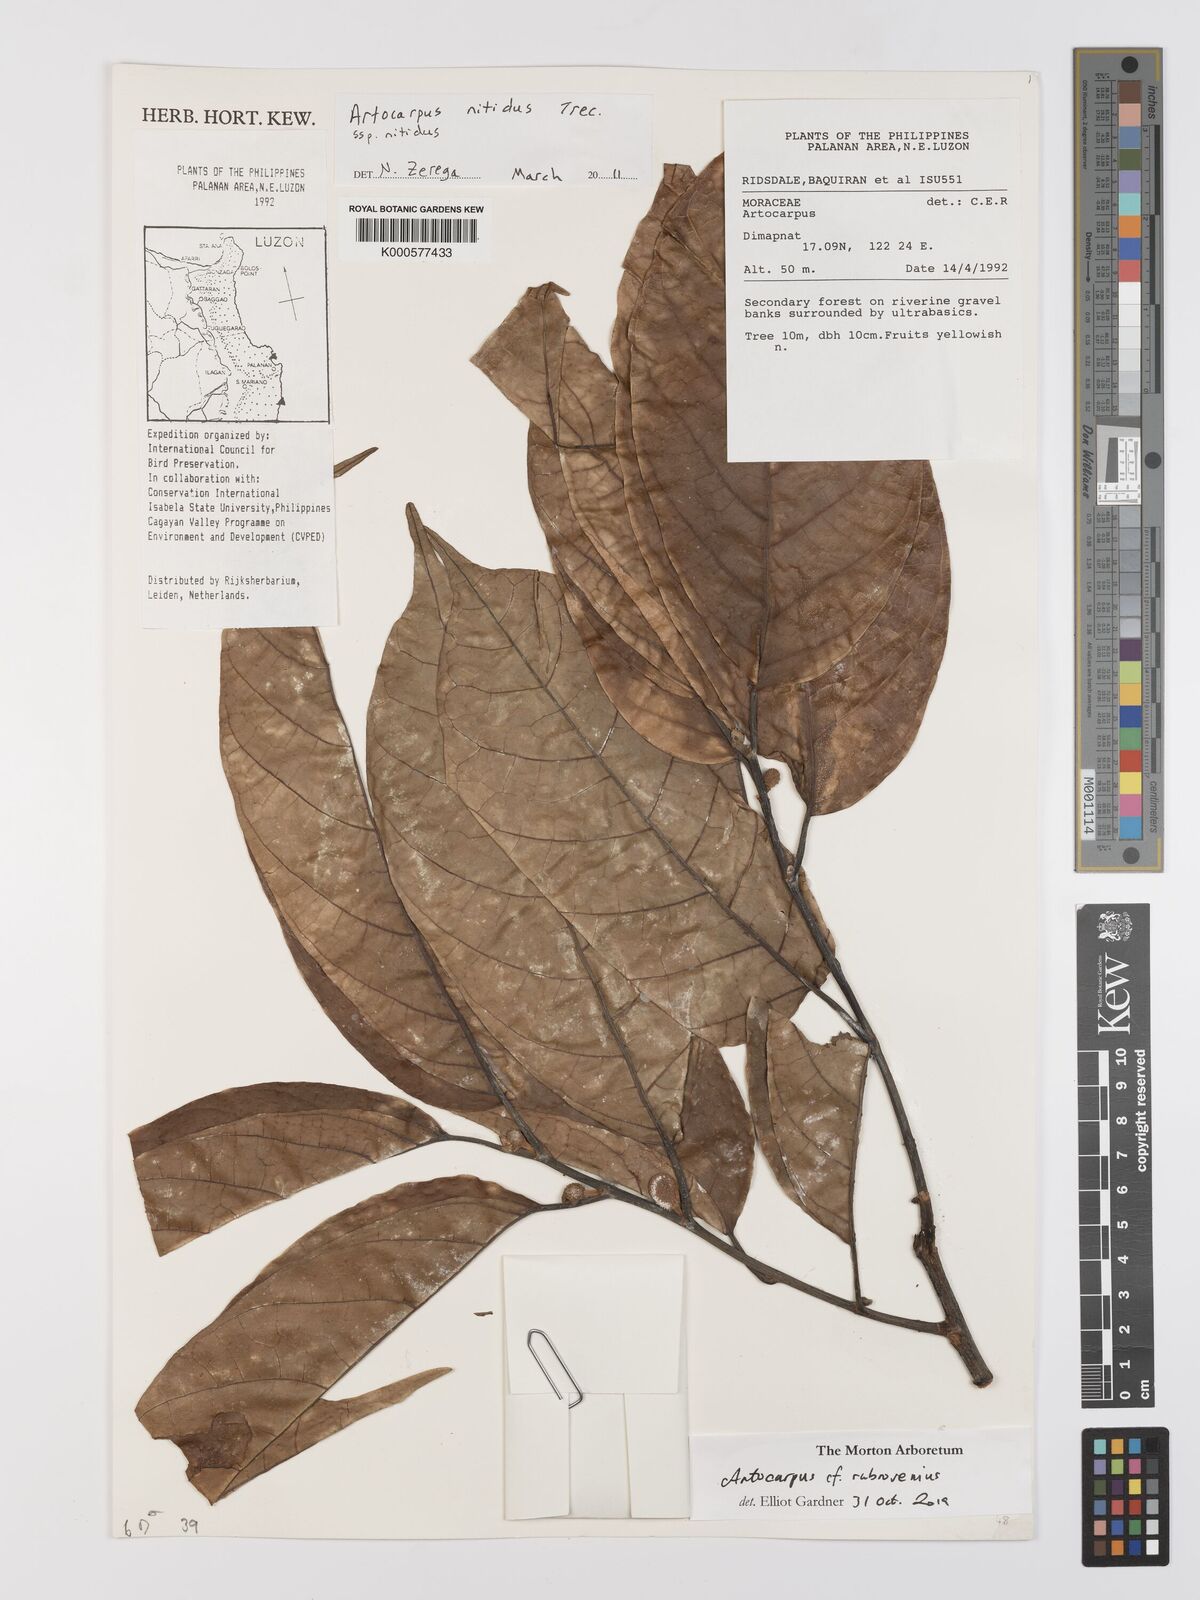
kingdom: Plantae
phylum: Tracheophyta
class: Magnoliopsida
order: Rosales
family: Moraceae
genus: Artocarpus
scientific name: Artocarpus
